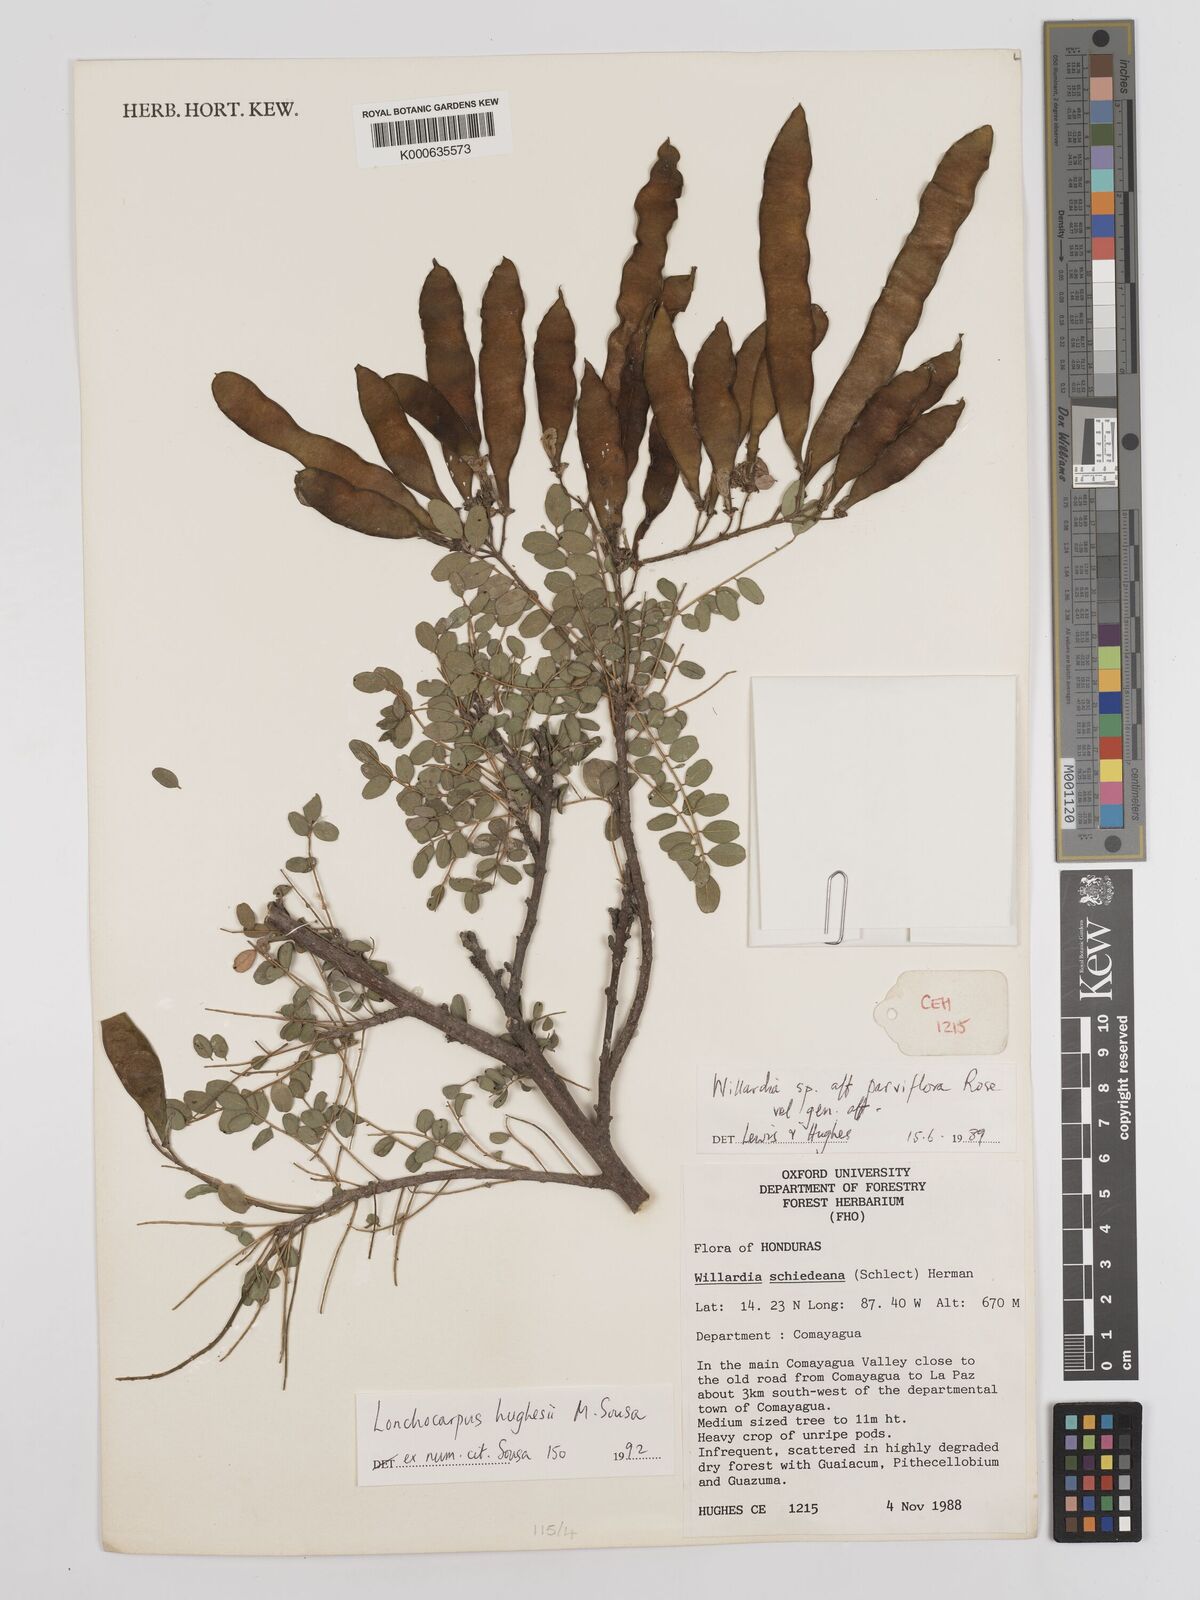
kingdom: Plantae
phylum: Tracheophyta
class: Magnoliopsida
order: Fabales
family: Fabaceae
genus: Lonchocarpus
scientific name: Lonchocarpus hughesii
